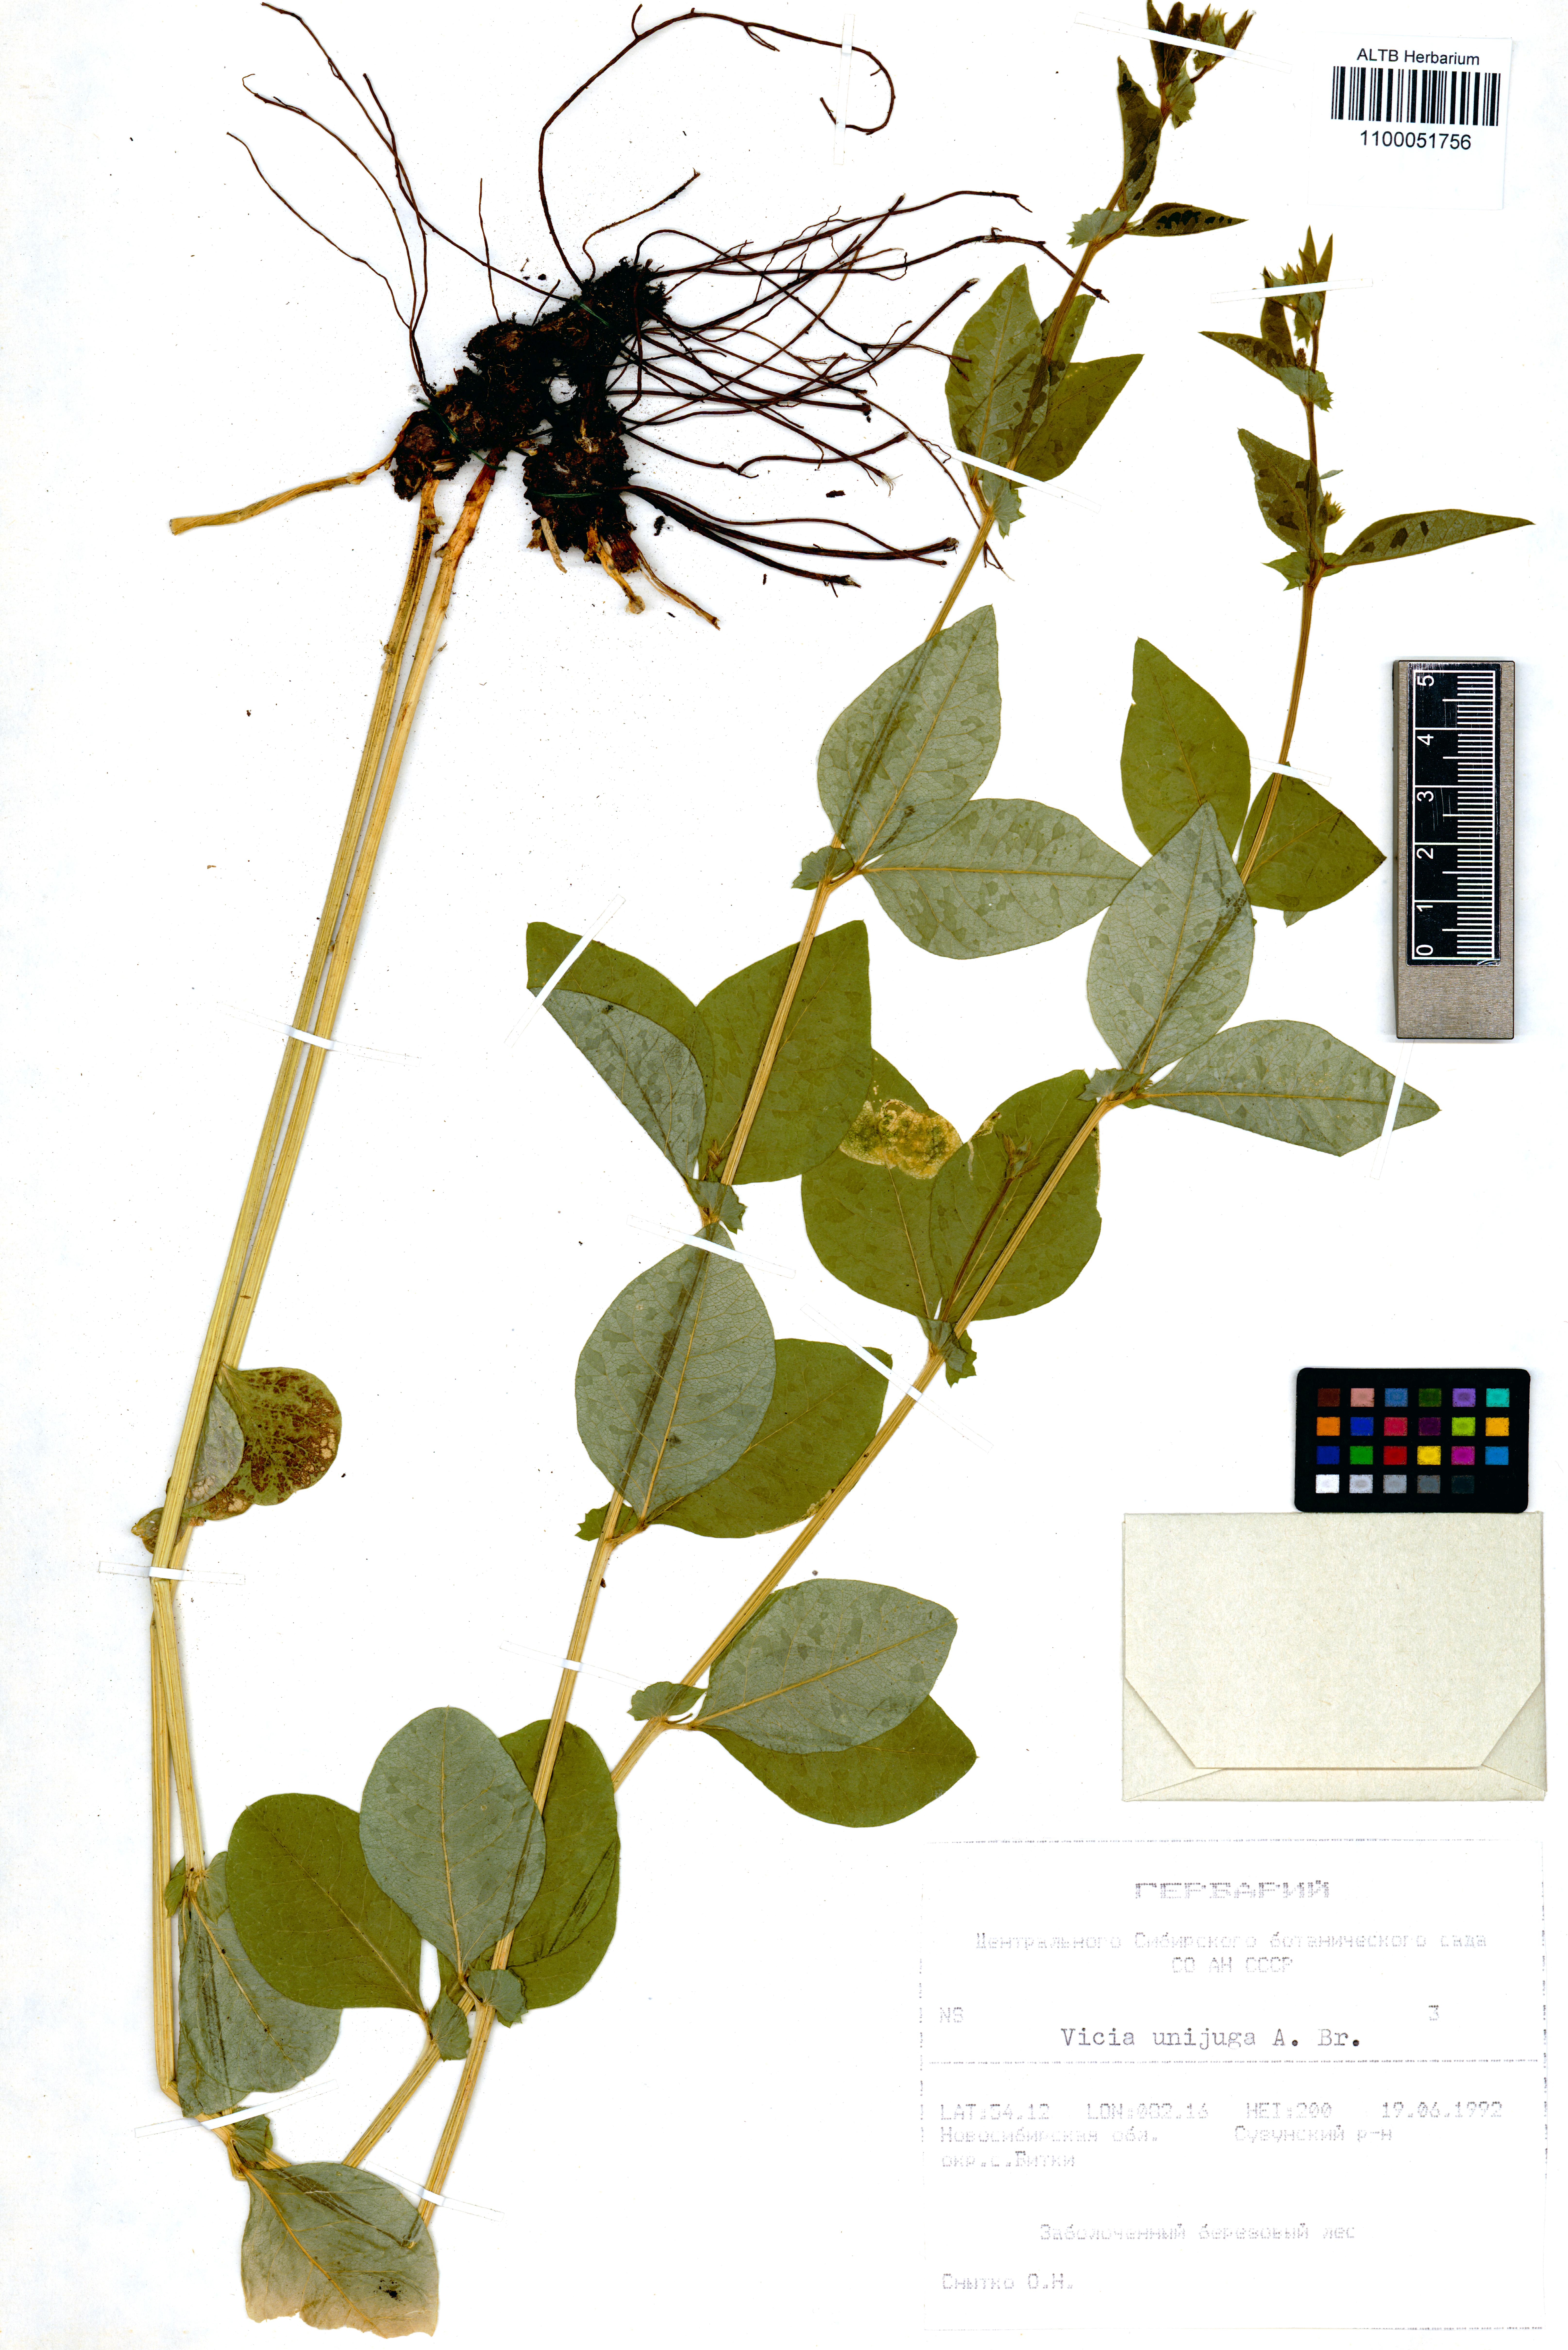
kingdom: Plantae
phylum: Tracheophyta
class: Magnoliopsida
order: Fabales
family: Fabaceae
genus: Vicia
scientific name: Vicia unijuga
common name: Two-leaf vetch
